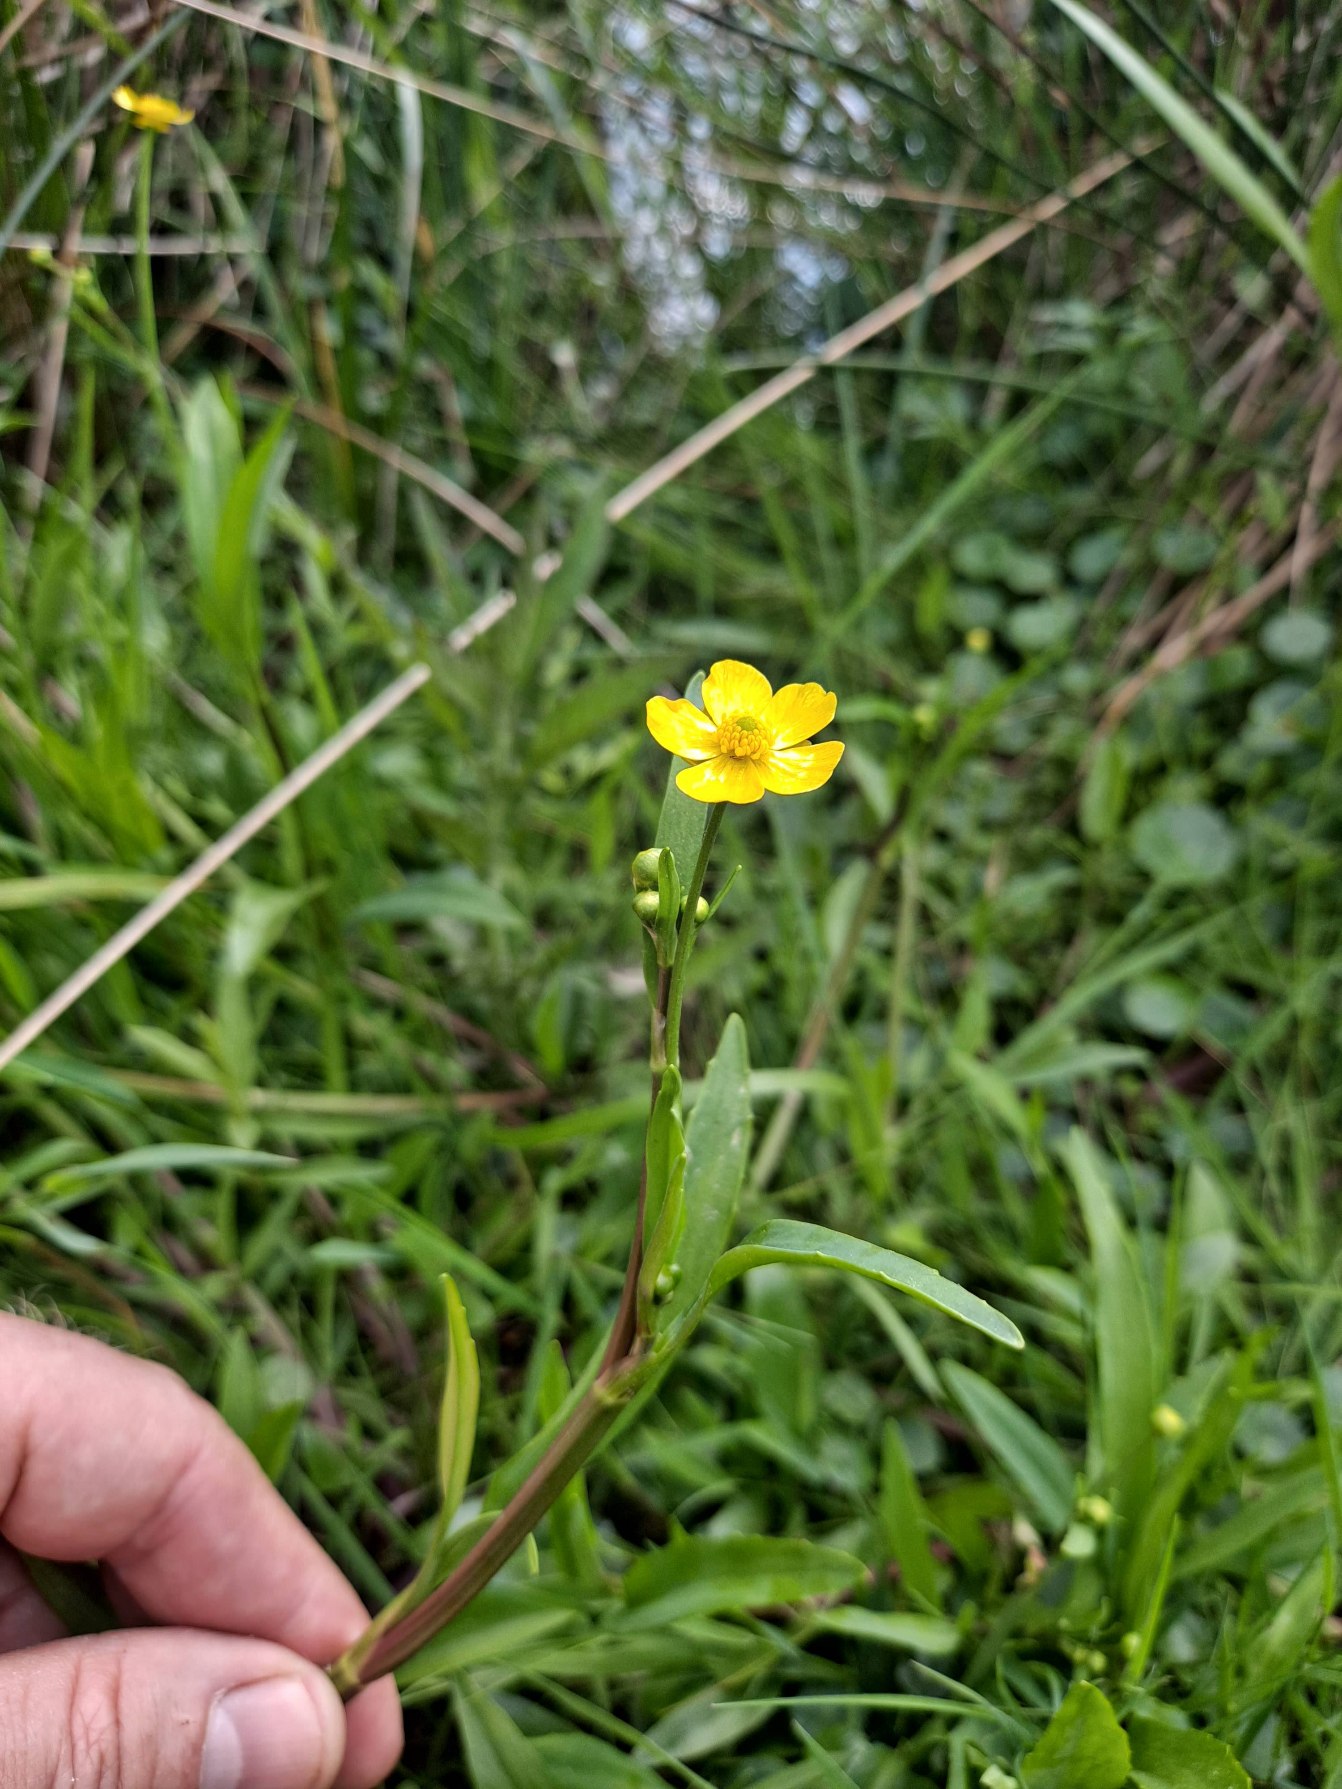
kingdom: Plantae
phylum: Tracheophyta
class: Magnoliopsida
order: Ranunculales
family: Ranunculaceae
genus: Ranunculus
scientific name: Ranunculus flammula
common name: Kær-ranunkel
